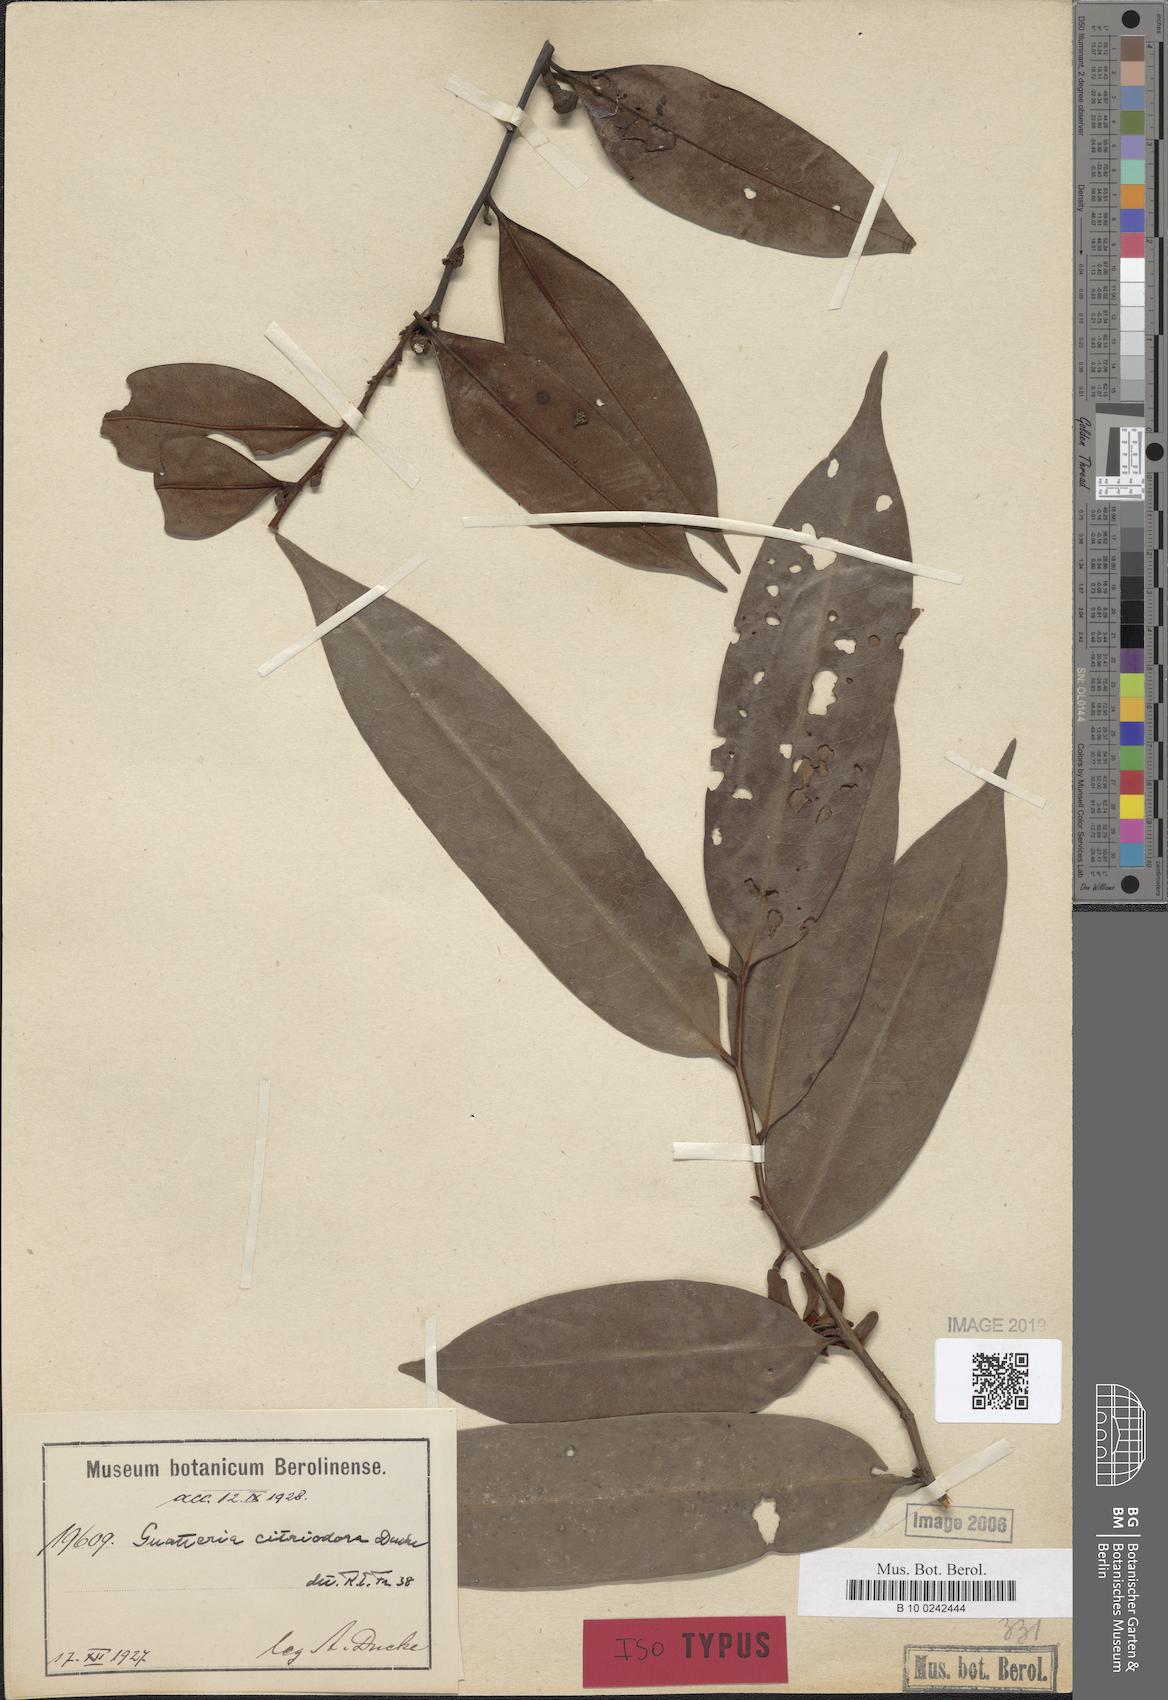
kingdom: Plantae
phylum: Tracheophyta
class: Magnoliopsida
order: Magnoliales
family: Annonaceae
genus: Guatteria
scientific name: Guatteria citriodora
